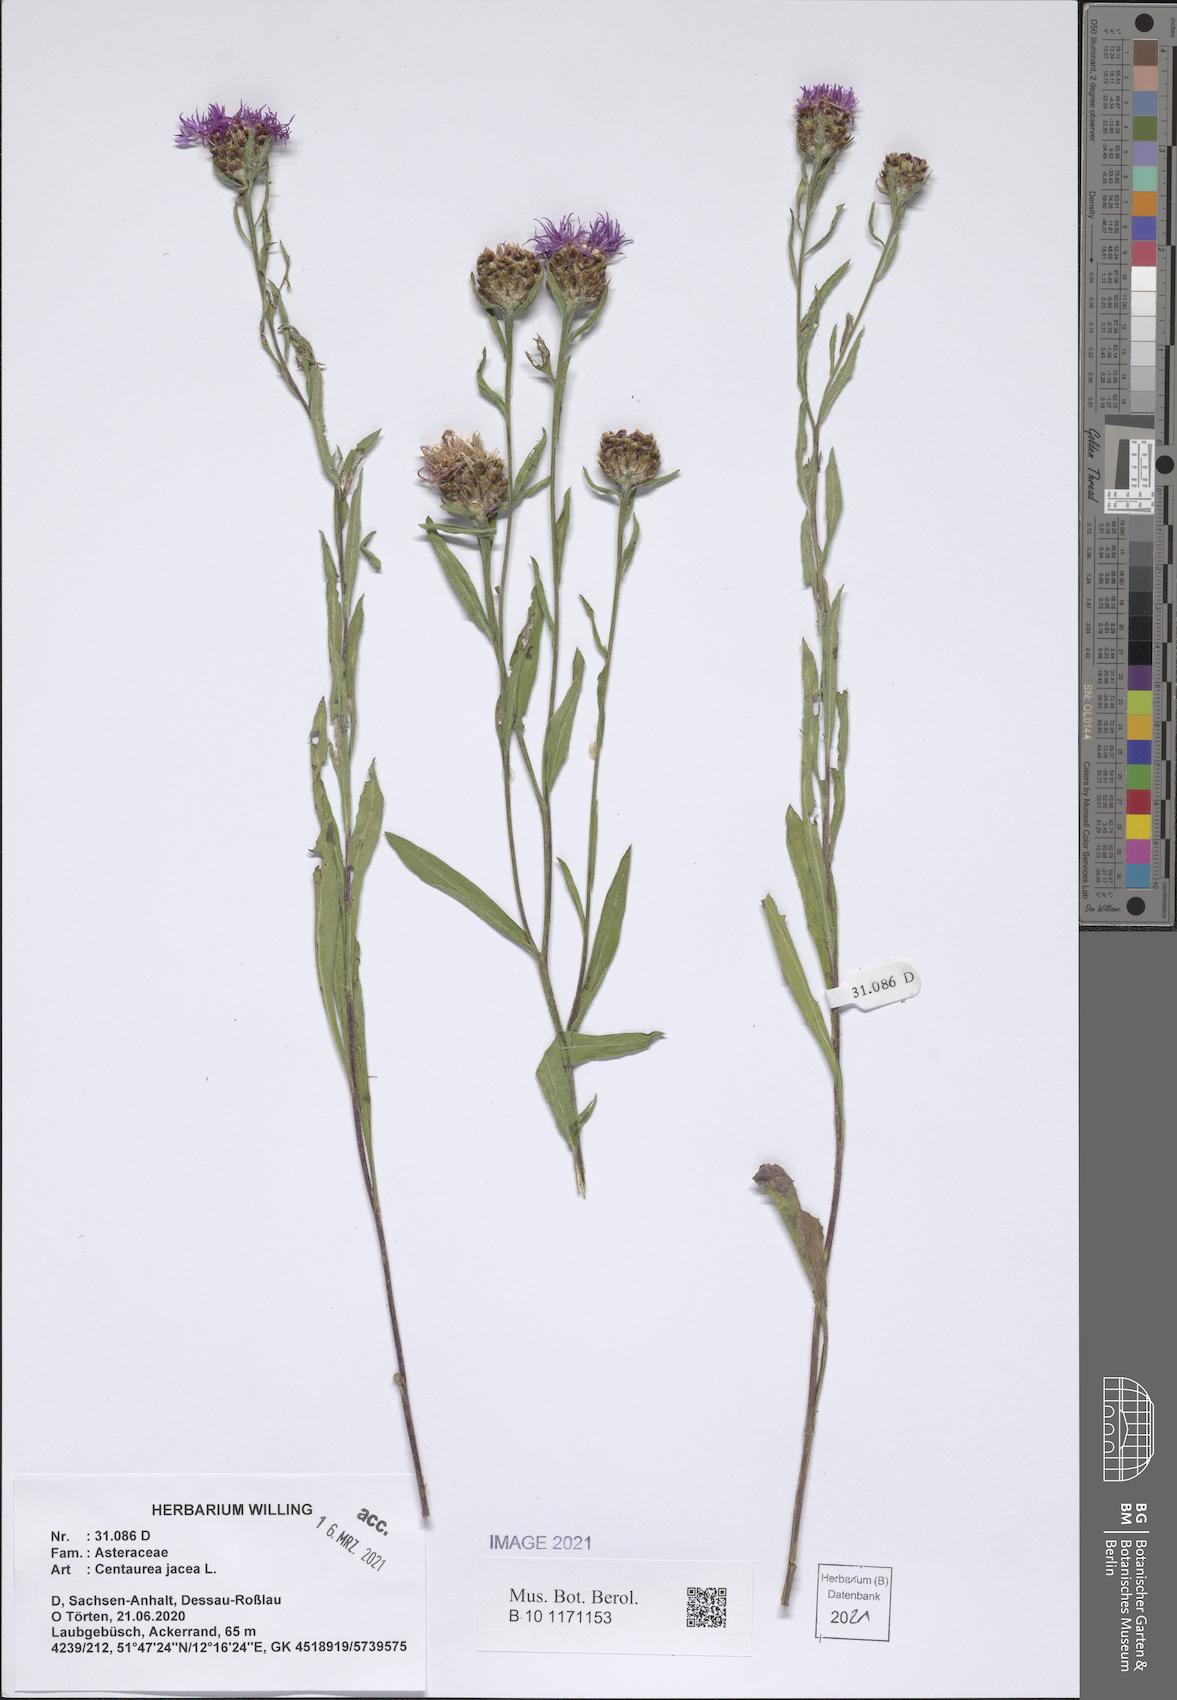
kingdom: Plantae
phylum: Tracheophyta
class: Magnoliopsida
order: Asterales
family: Asteraceae
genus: Centaurea
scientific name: Centaurea jacea
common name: Brown knapweed
